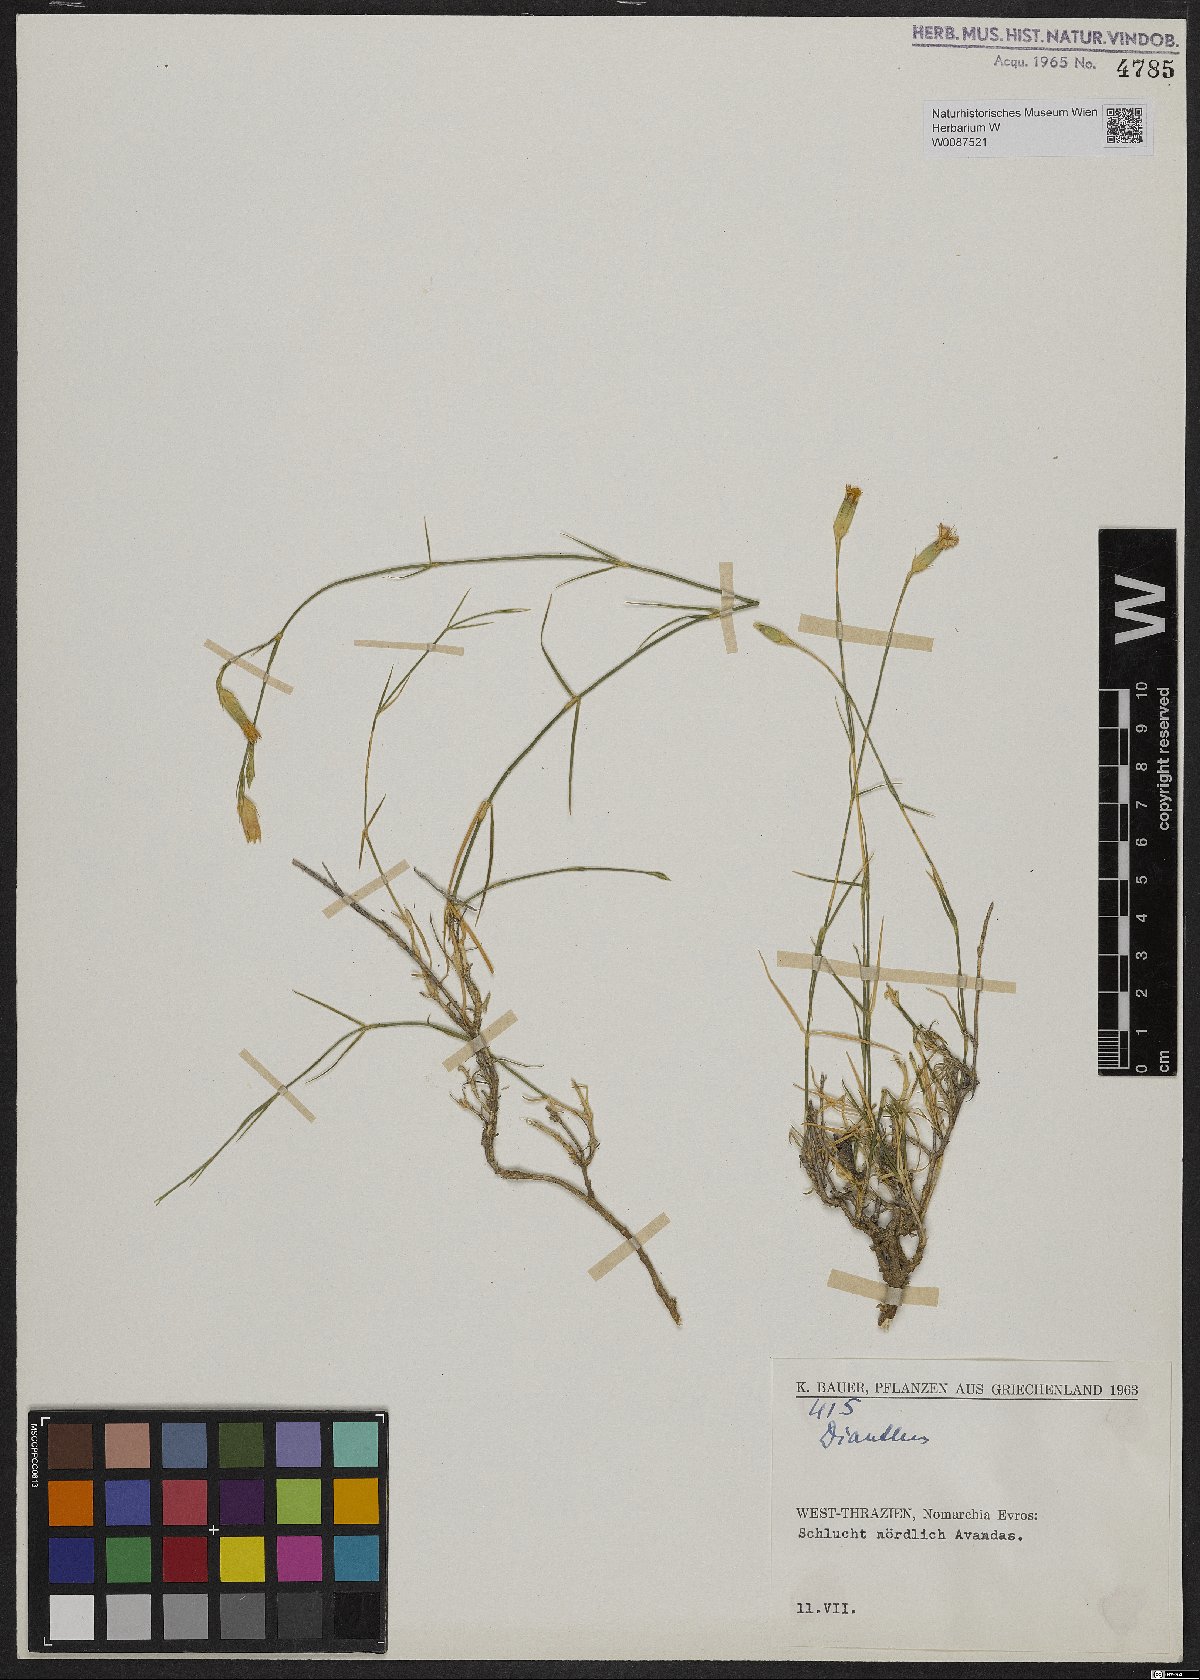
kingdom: Plantae
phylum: Tracheophyta
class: Magnoliopsida
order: Caryophyllales
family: Caryophyllaceae
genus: Dianthus
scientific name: Dianthus
